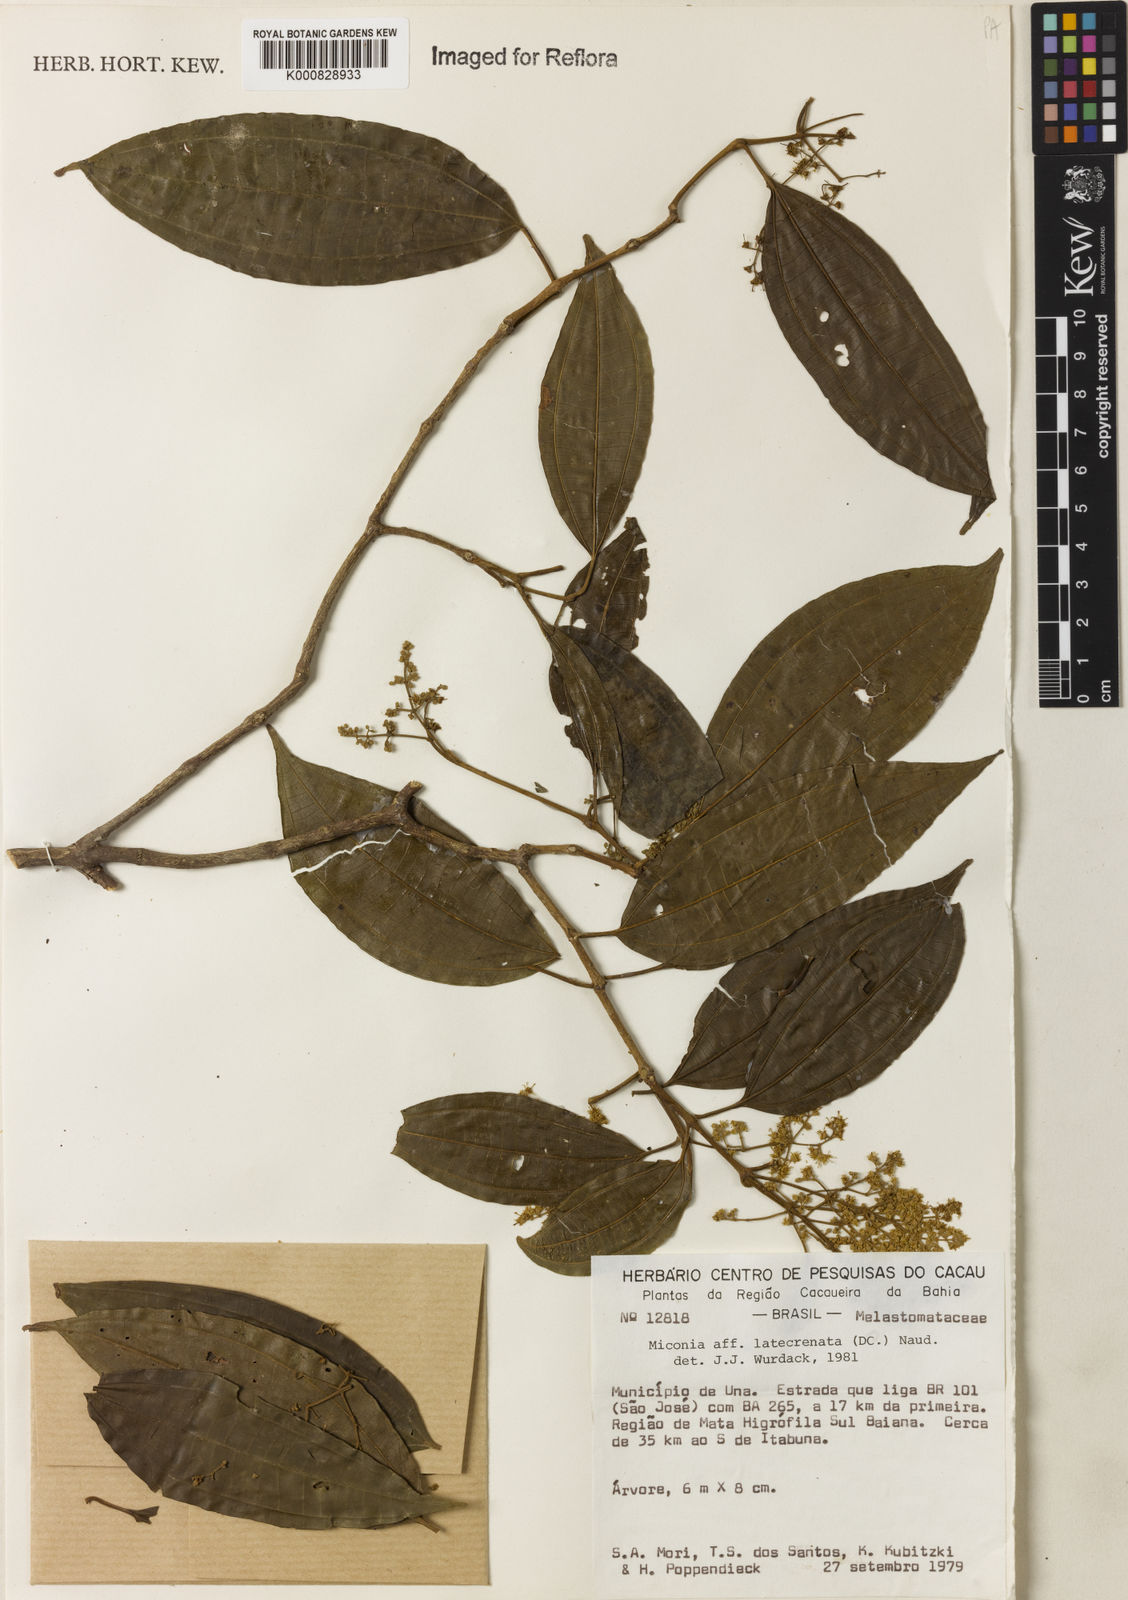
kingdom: Plantae
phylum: Tracheophyta
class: Magnoliopsida
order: Myrtales
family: Melastomataceae
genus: Miconia
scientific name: Miconia latecrenata
